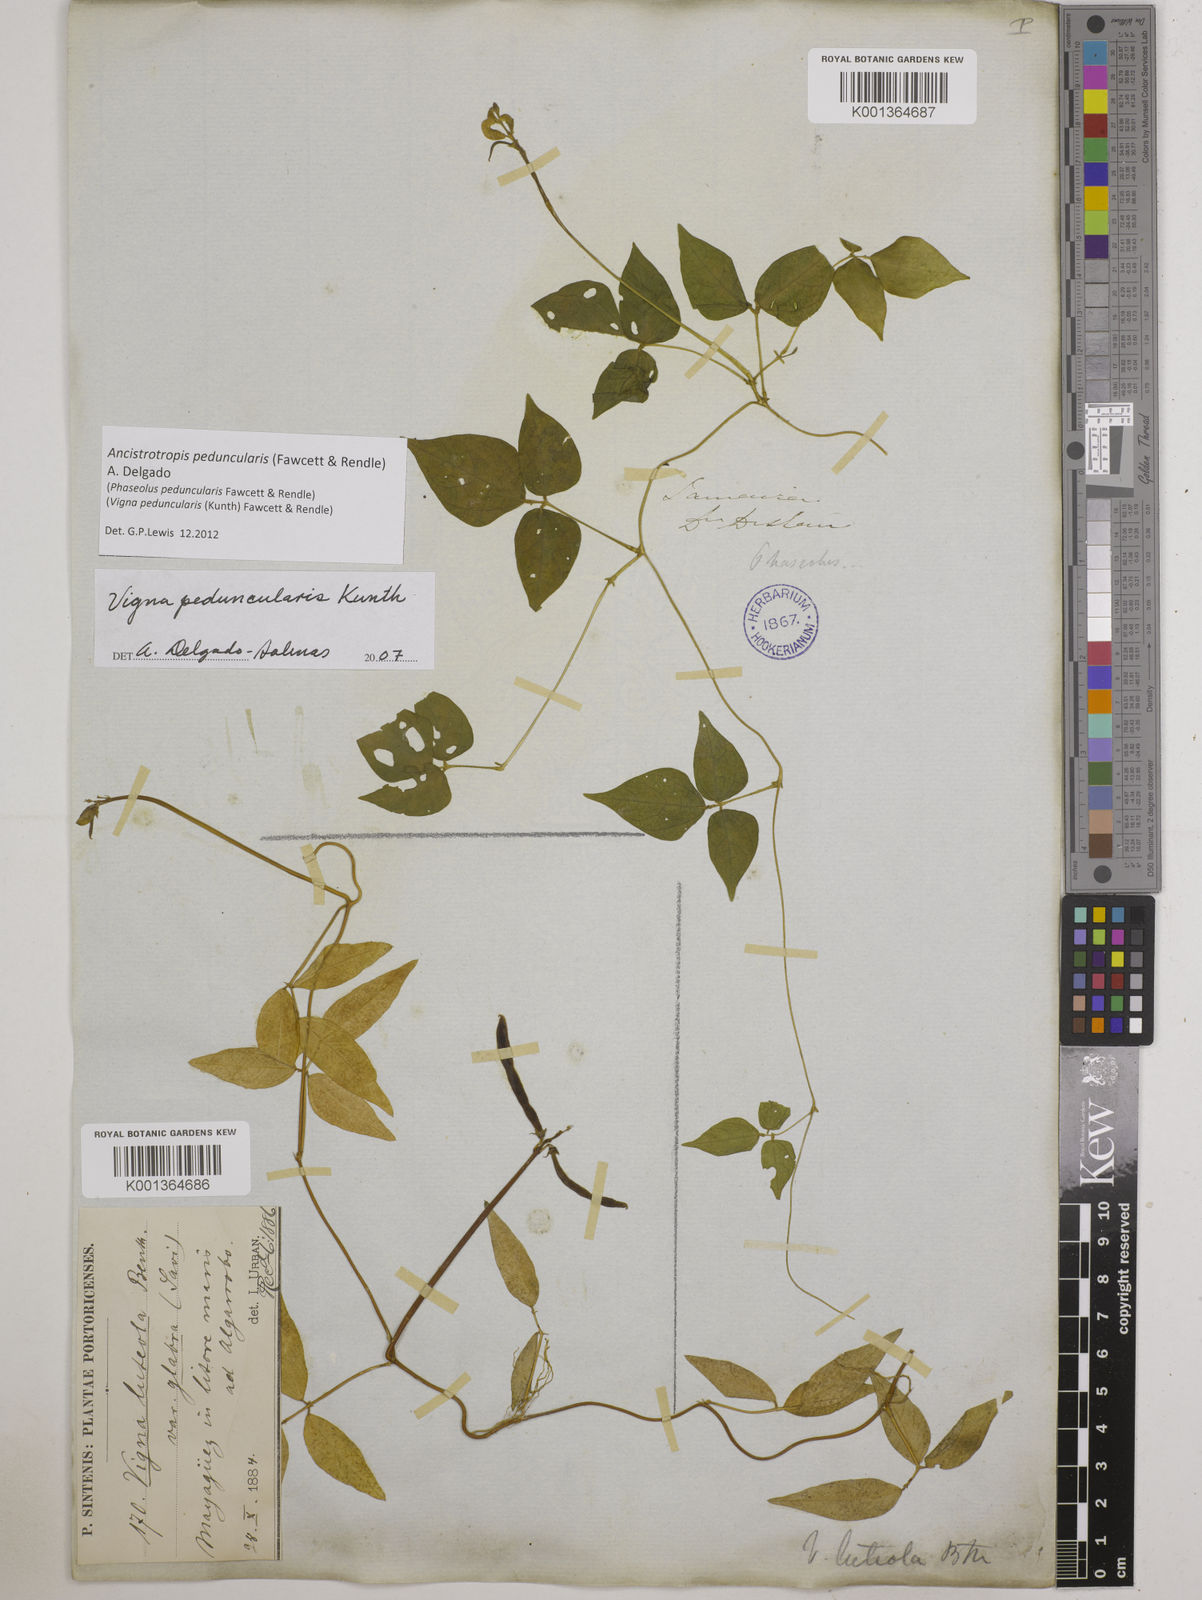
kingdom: Plantae
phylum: Tracheophyta
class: Magnoliopsida
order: Fabales
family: Fabaceae
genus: Ancistrotropis
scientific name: Ancistrotropis peduncularis
